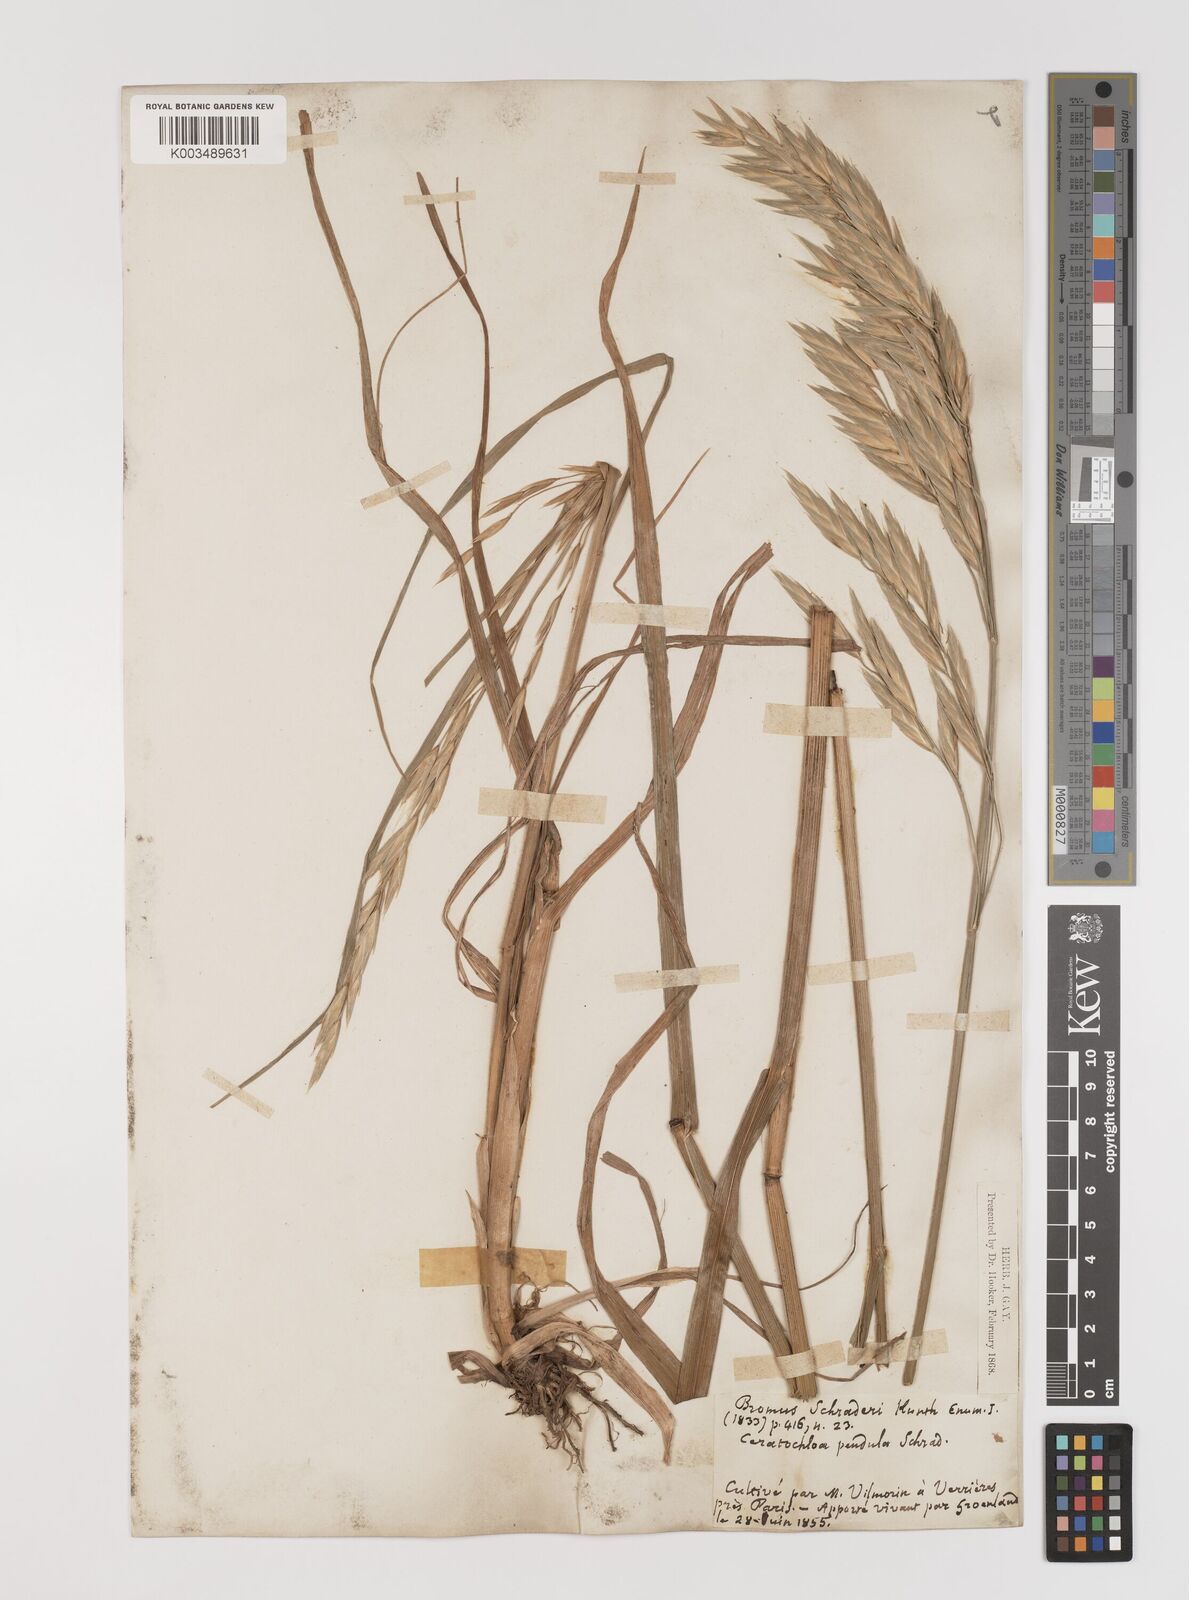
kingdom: Plantae
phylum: Tracheophyta
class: Liliopsida
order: Poales
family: Poaceae
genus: Bromus
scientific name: Bromus catharticus
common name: Rescuegrass
